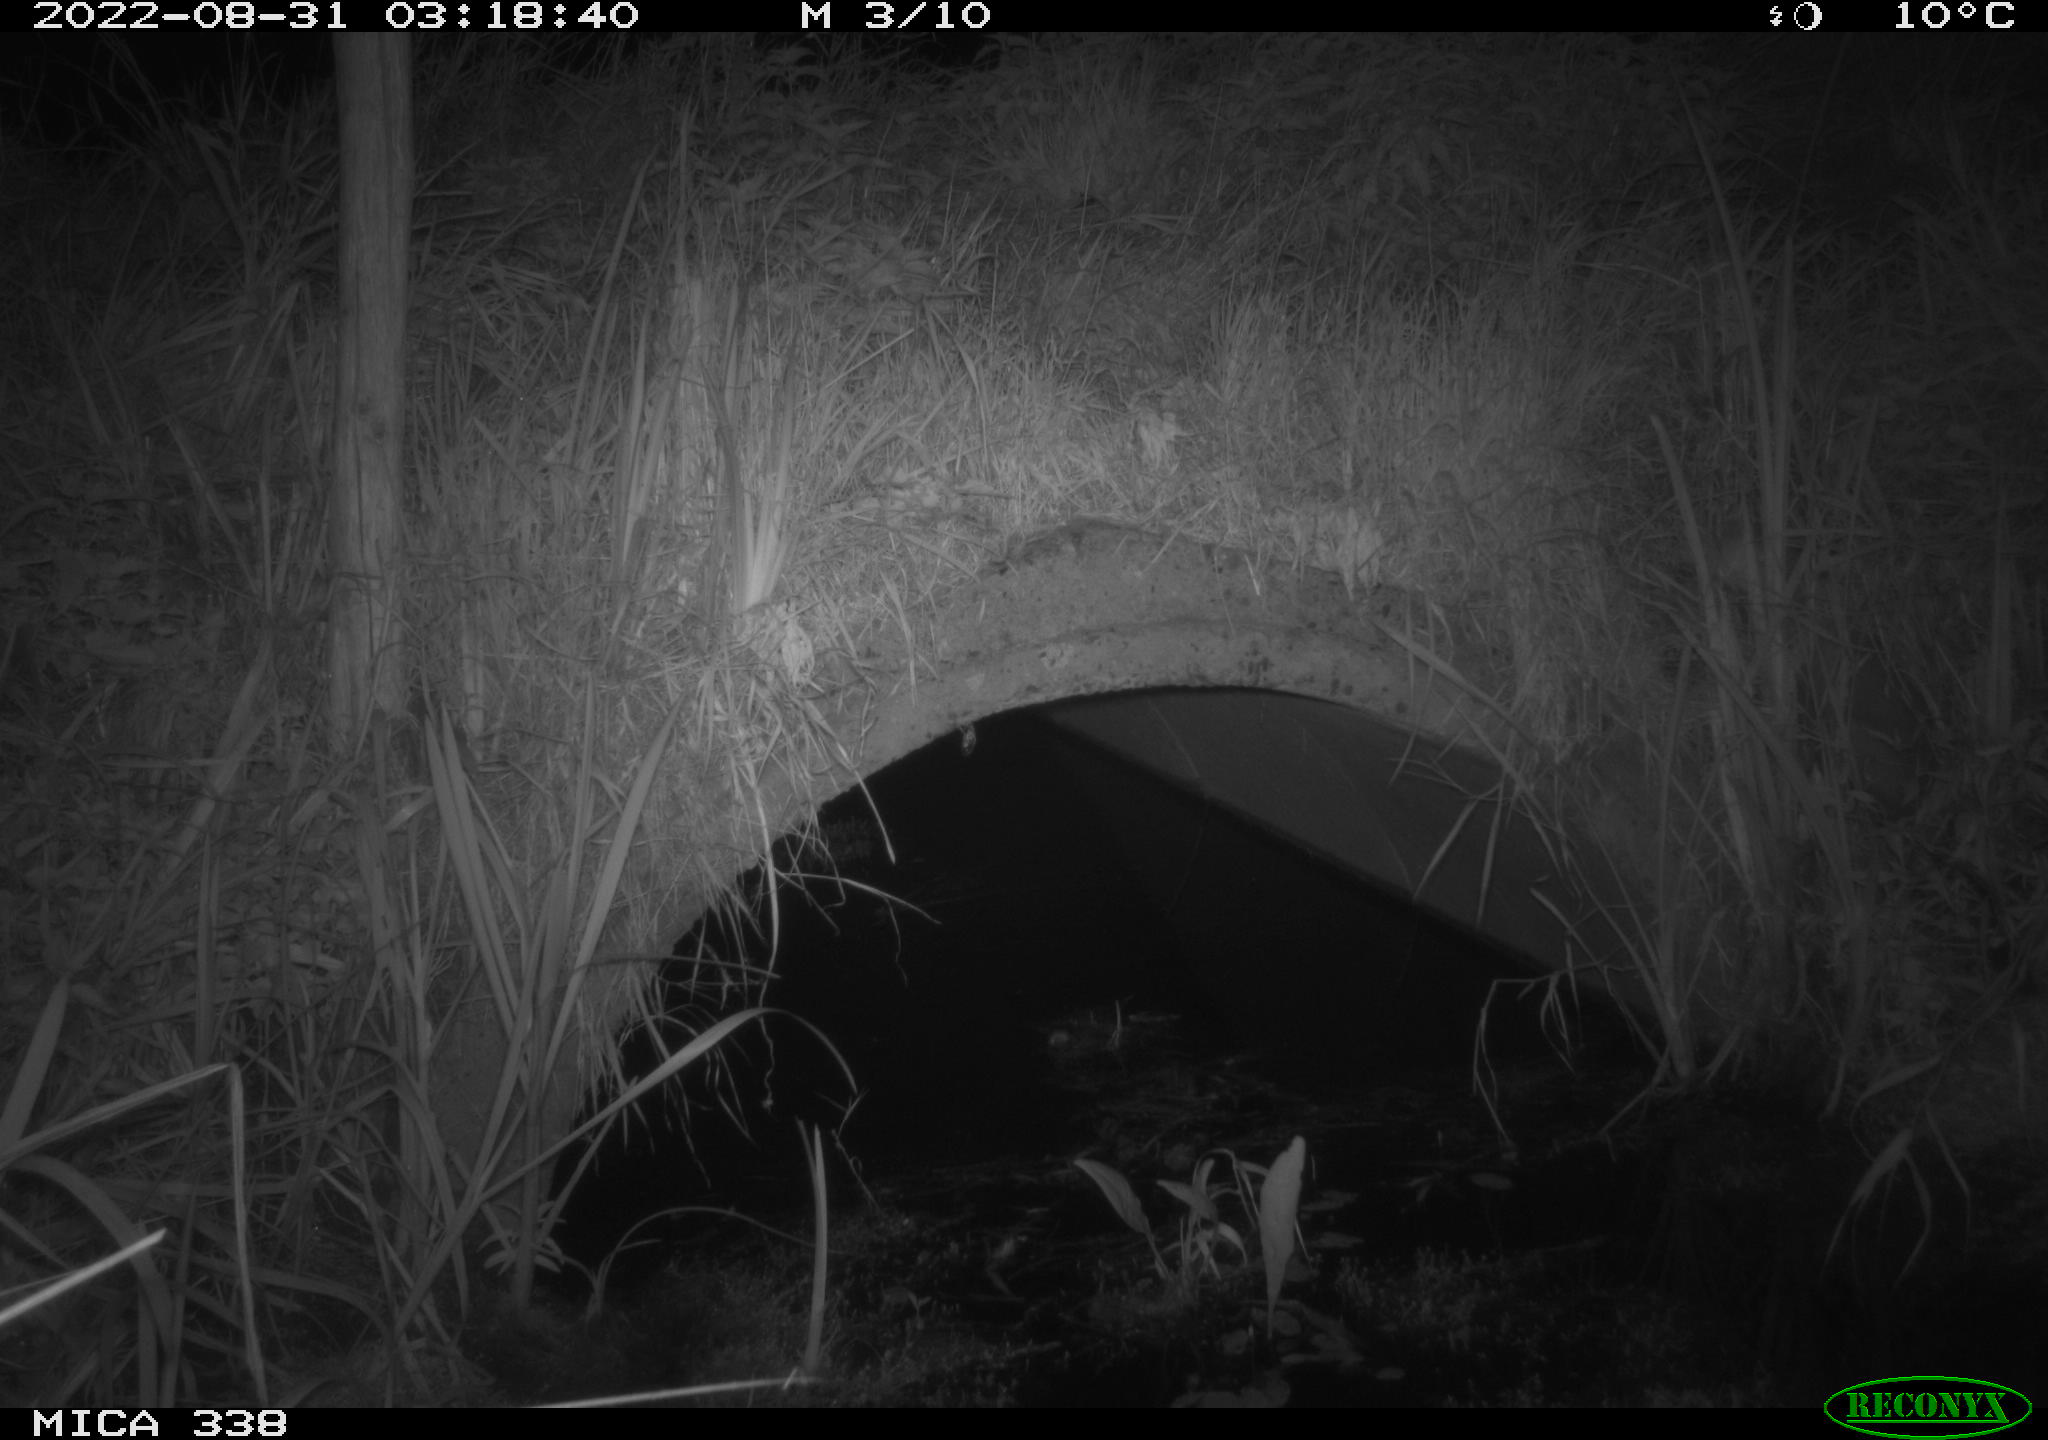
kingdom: Animalia
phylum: Chordata
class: Mammalia
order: Carnivora
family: Mustelidae
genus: Martes
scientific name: Martes foina
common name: Beech marten
